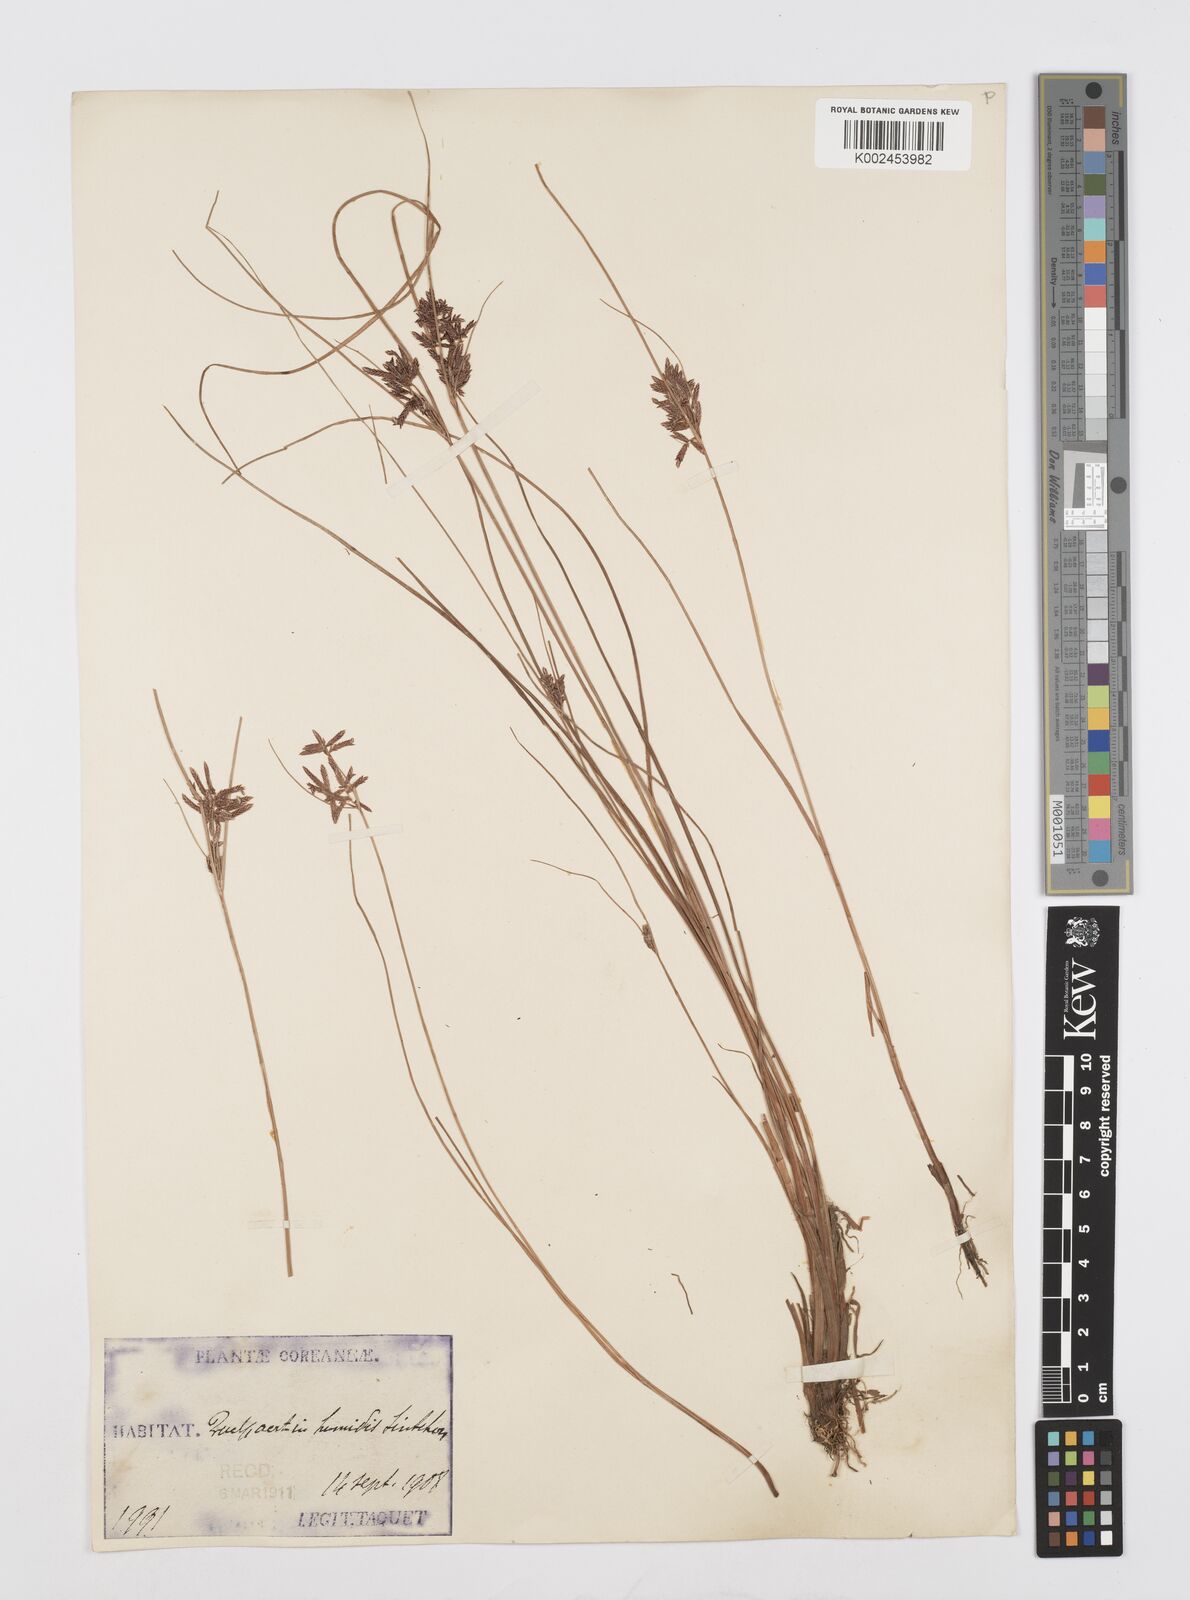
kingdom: Plantae
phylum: Tracheophyta
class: Liliopsida
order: Poales
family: Cyperaceae
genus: Cyperus
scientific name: Cyperus
